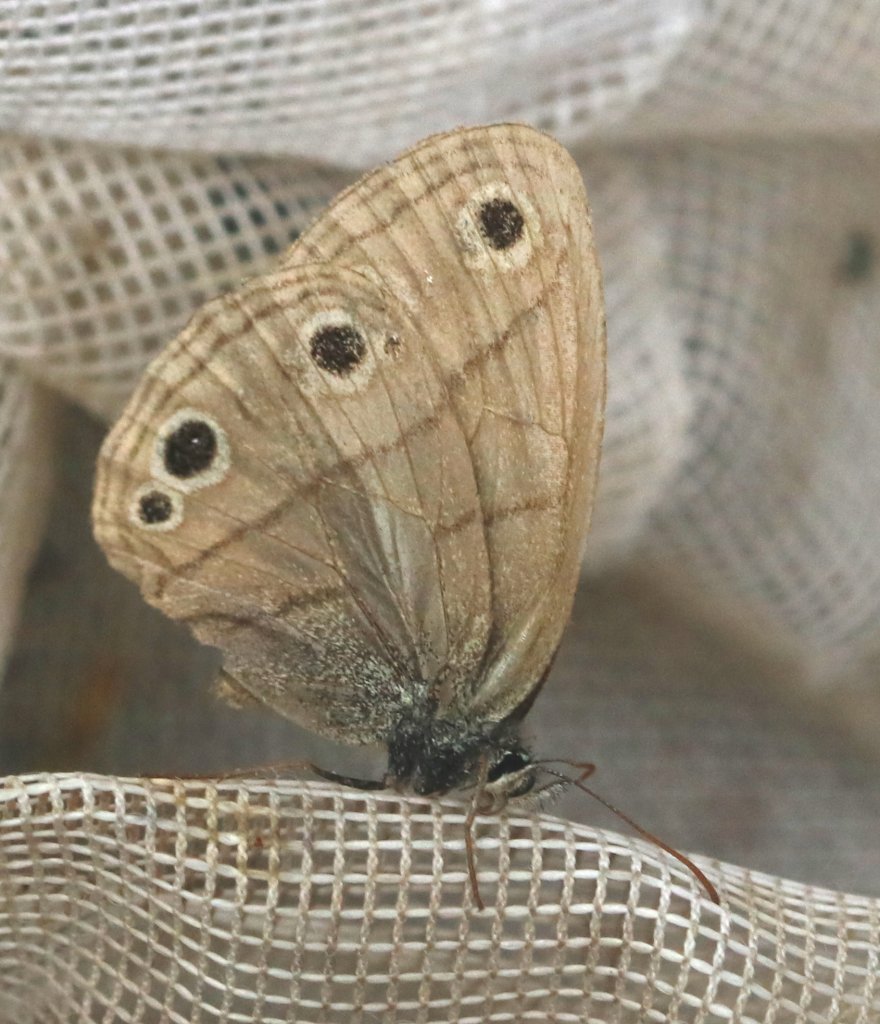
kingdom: Animalia
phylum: Arthropoda
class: Insecta
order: Lepidoptera
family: Nymphalidae
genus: Euptychia
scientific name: Euptychia cymela
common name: Little Wood Satyr
